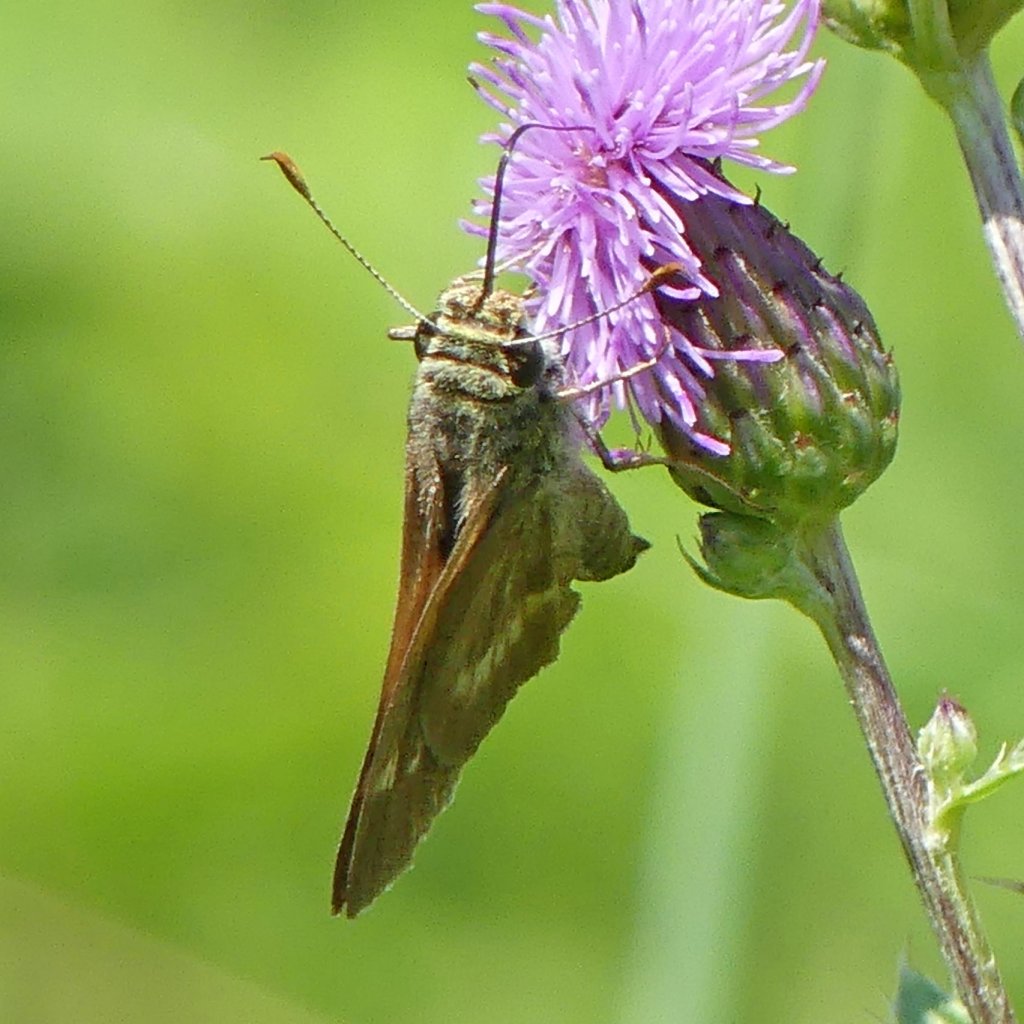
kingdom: Animalia
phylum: Arthropoda
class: Insecta
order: Lepidoptera
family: Hesperiidae
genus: Polites
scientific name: Polites
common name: Long Dash Skipper
